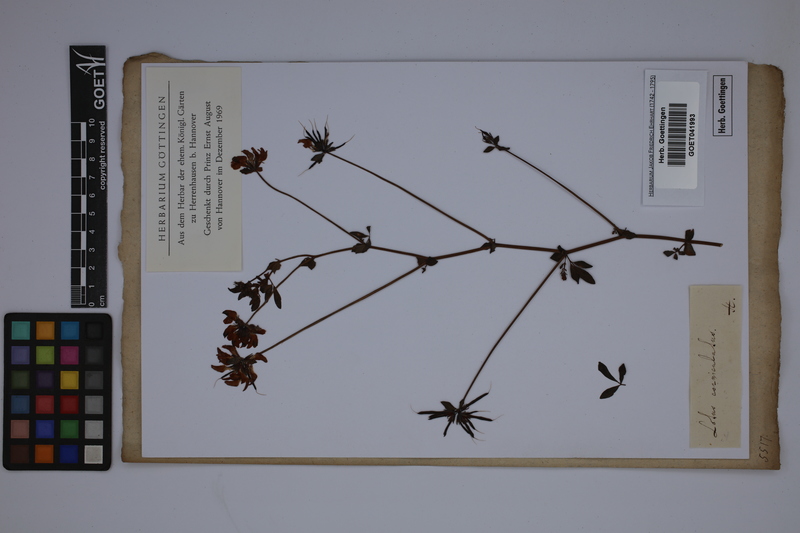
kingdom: Plantae
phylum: Tracheophyta
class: Magnoliopsida
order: Fabales
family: Fabaceae
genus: Lotus
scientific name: Lotus corniculatus
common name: Common bird's-foot-trefoil
